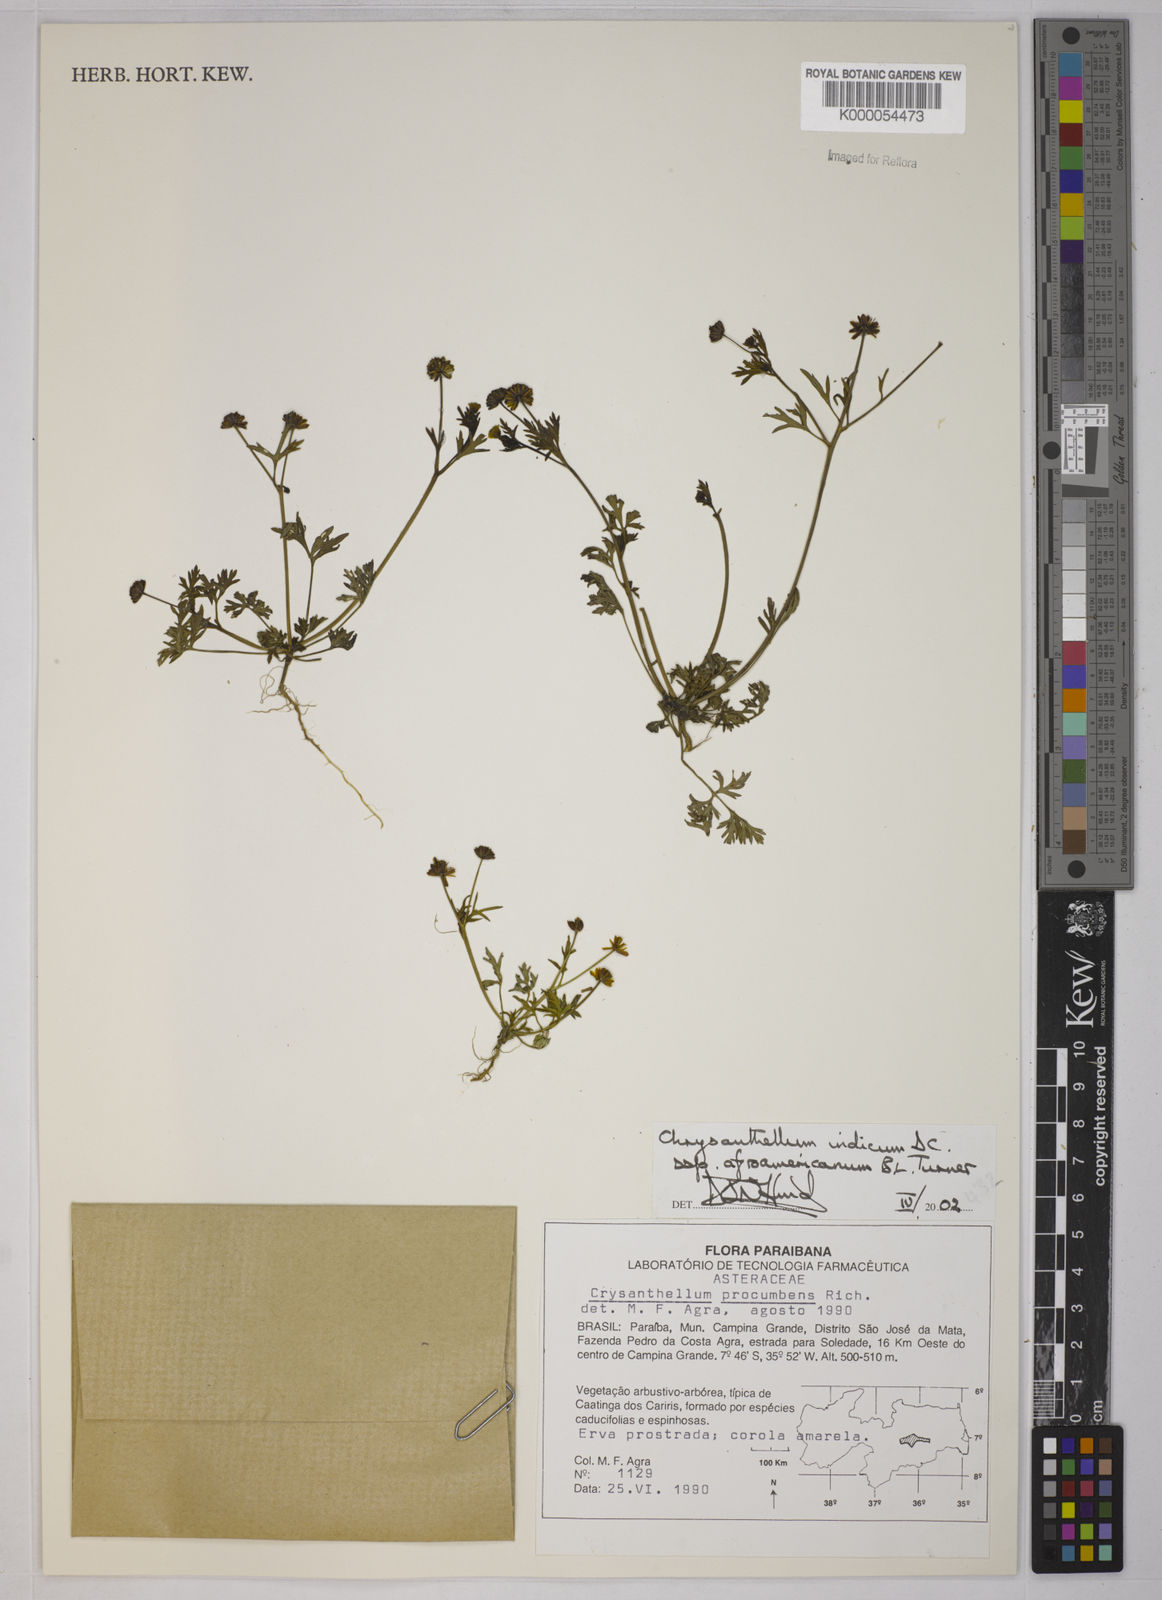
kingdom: Plantae
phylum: Tracheophyta
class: Magnoliopsida
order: Asterales
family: Asteraceae
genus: Chrysanthellum
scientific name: Chrysanthellum indicum
